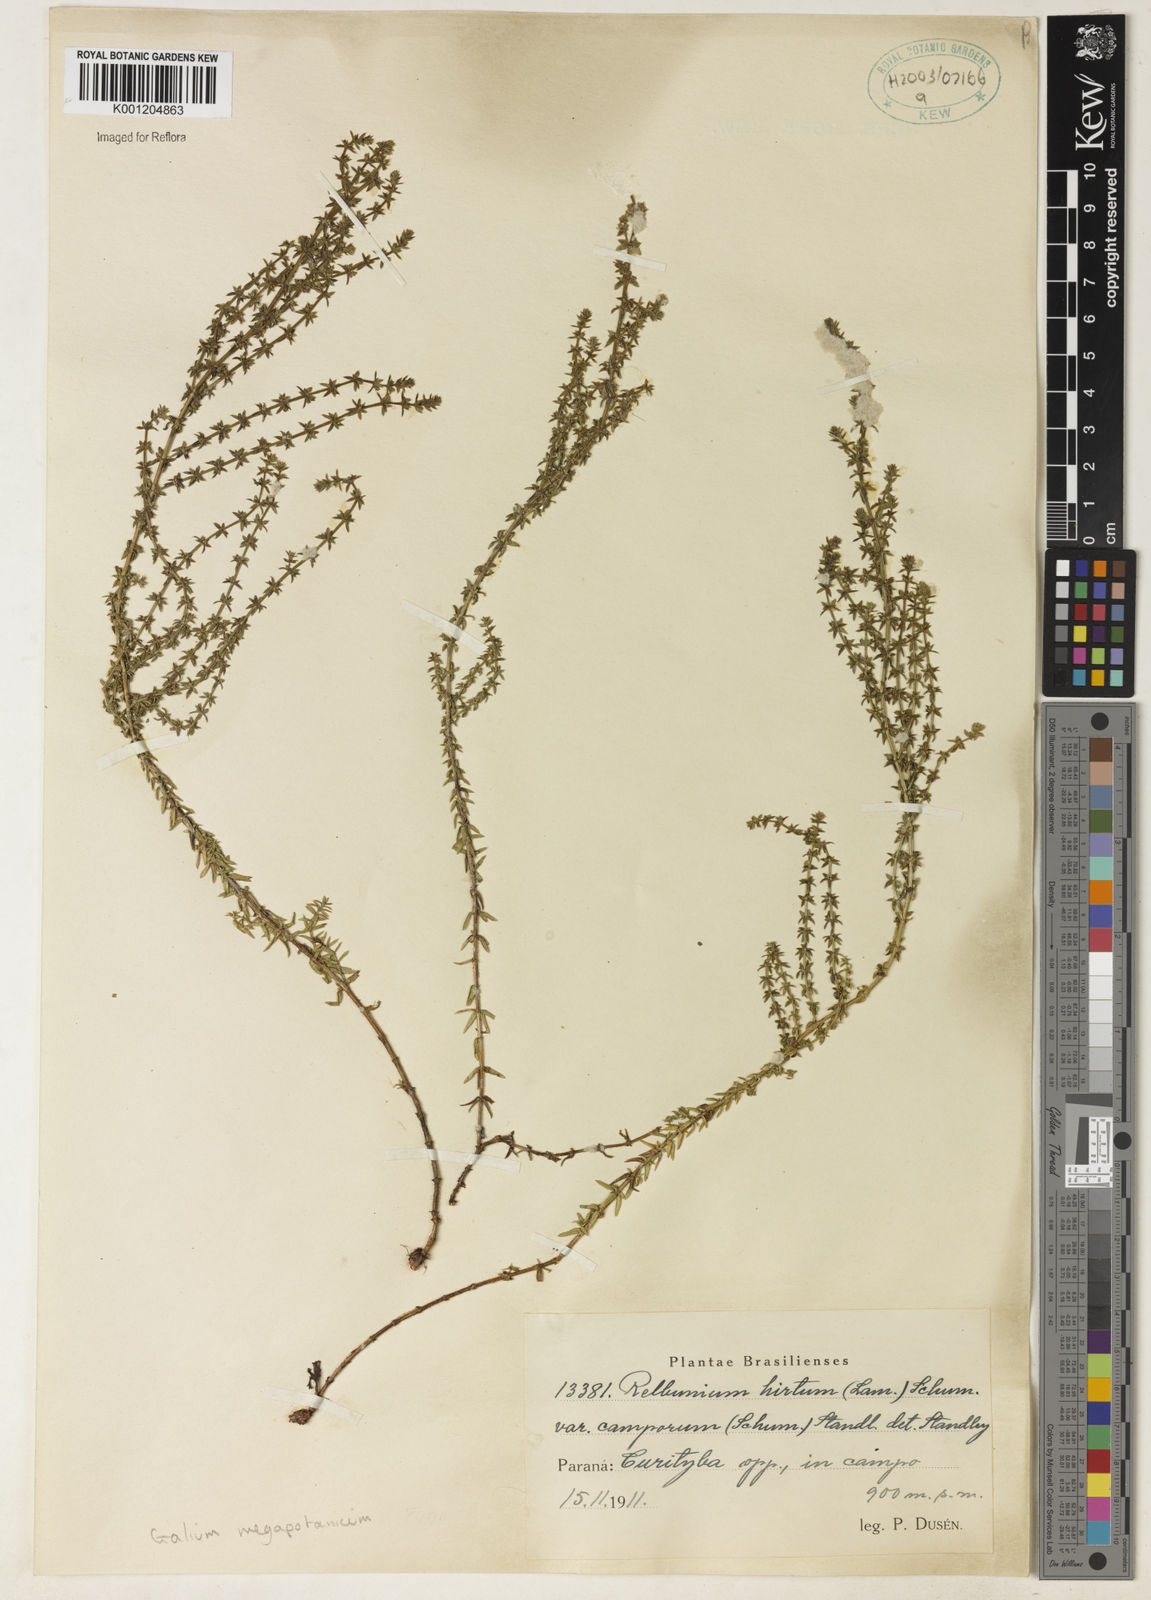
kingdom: Plantae
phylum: Tracheophyta
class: Magnoliopsida
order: Gentianales
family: Rubiaceae
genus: Galium
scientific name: Galium megapotamicum
